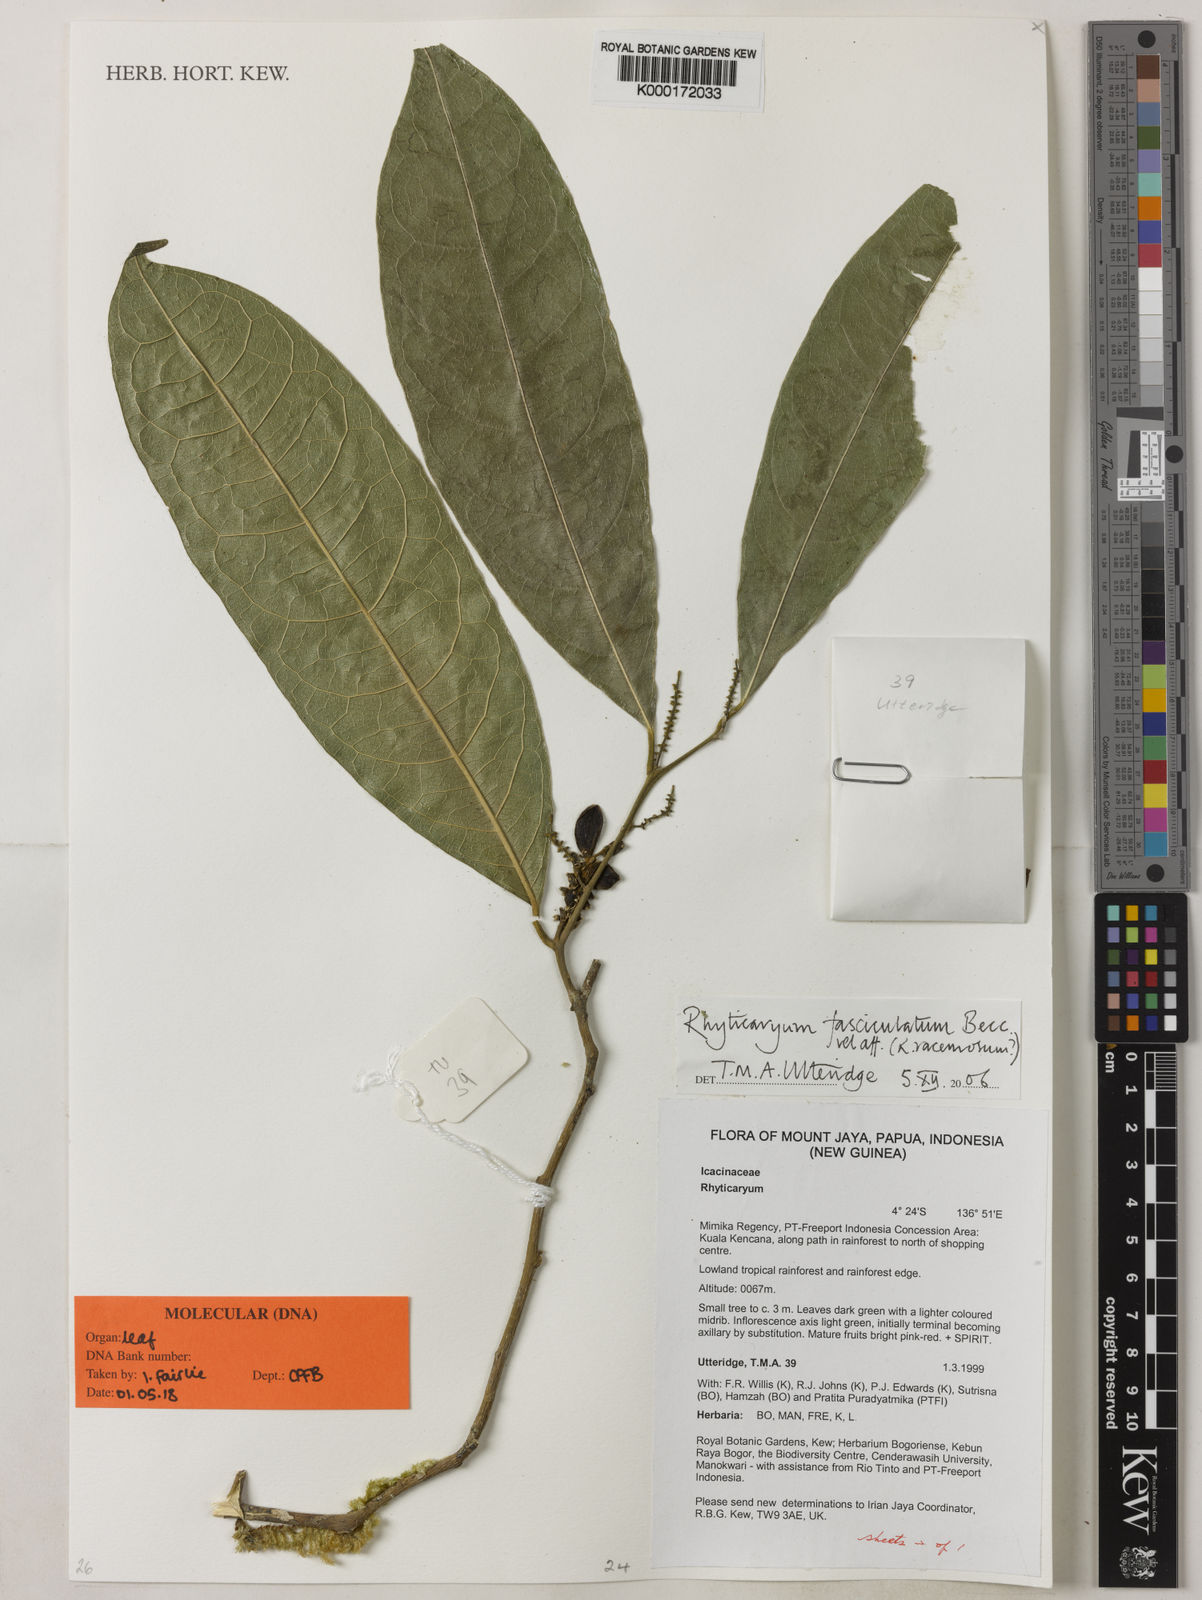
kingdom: Plantae
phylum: Tracheophyta
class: Magnoliopsida
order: Icacinales
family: Icacinaceae
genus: Ryticaryum
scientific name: Ryticaryum
